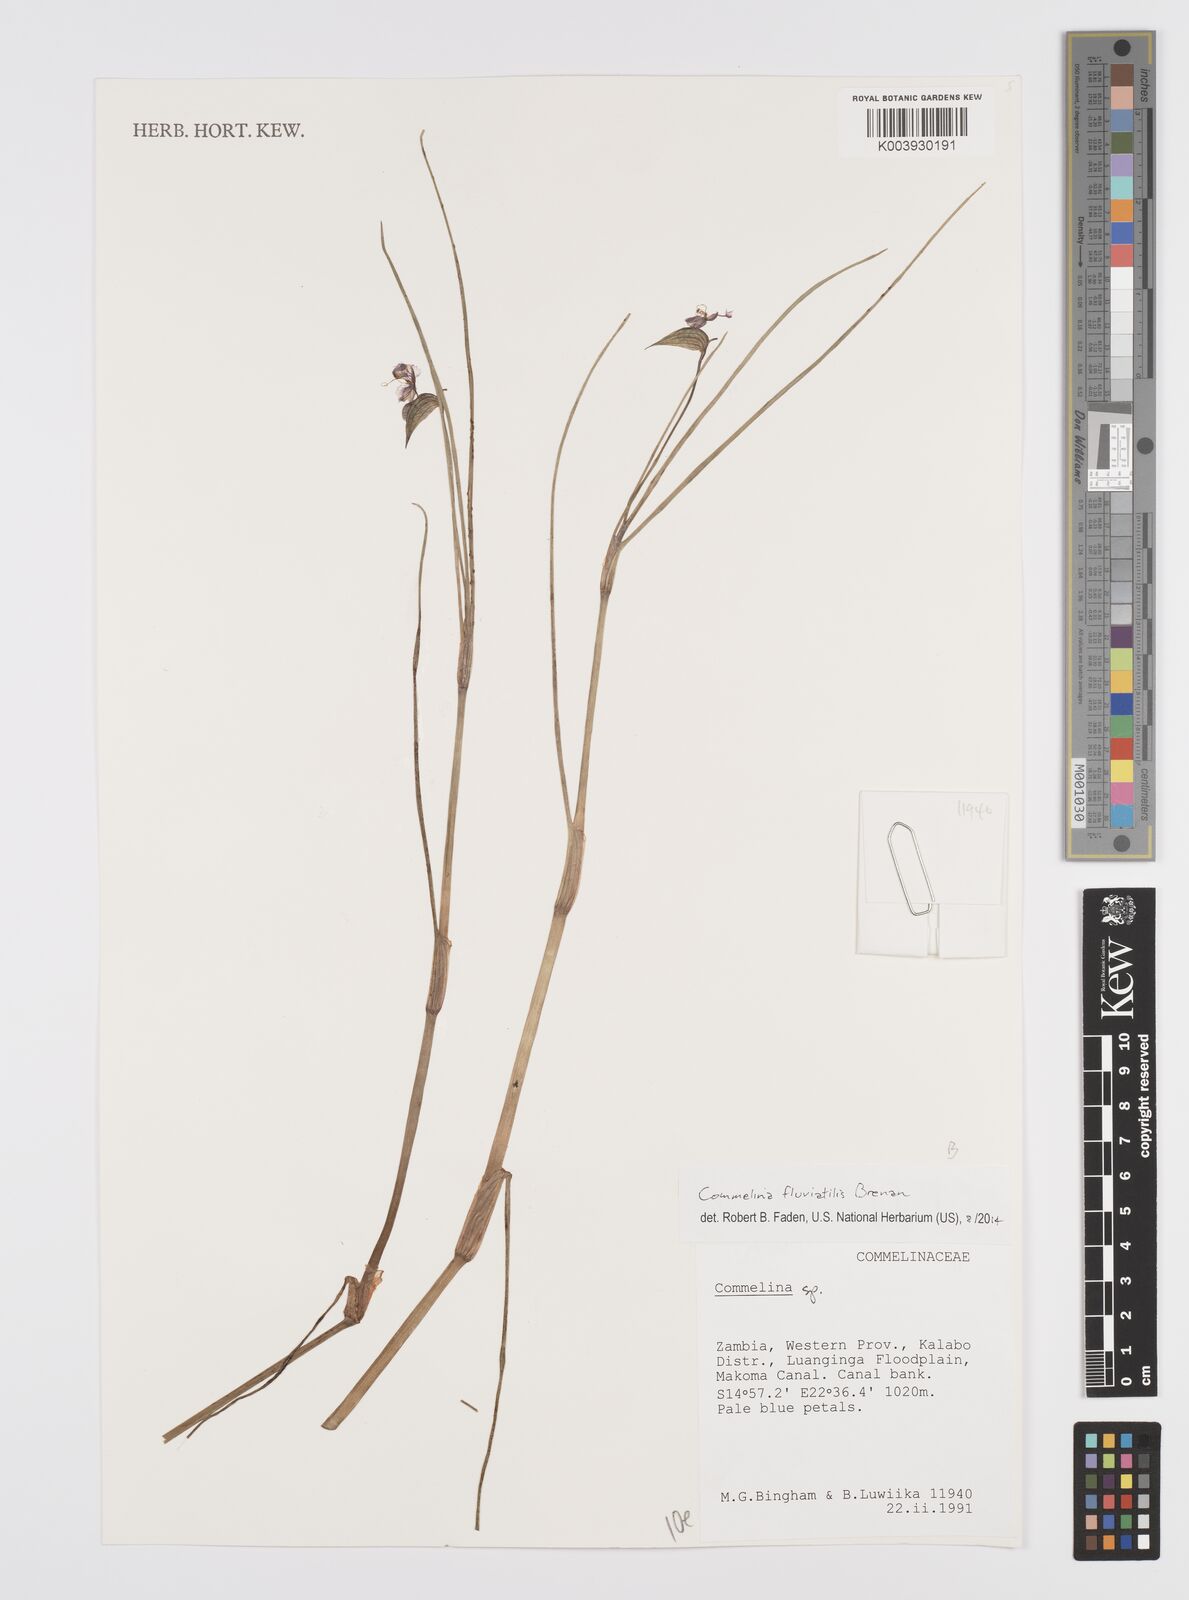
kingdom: Plantae
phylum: Tracheophyta
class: Liliopsida
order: Commelinales
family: Commelinaceae
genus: Commelina
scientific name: Commelina fluviatilis
